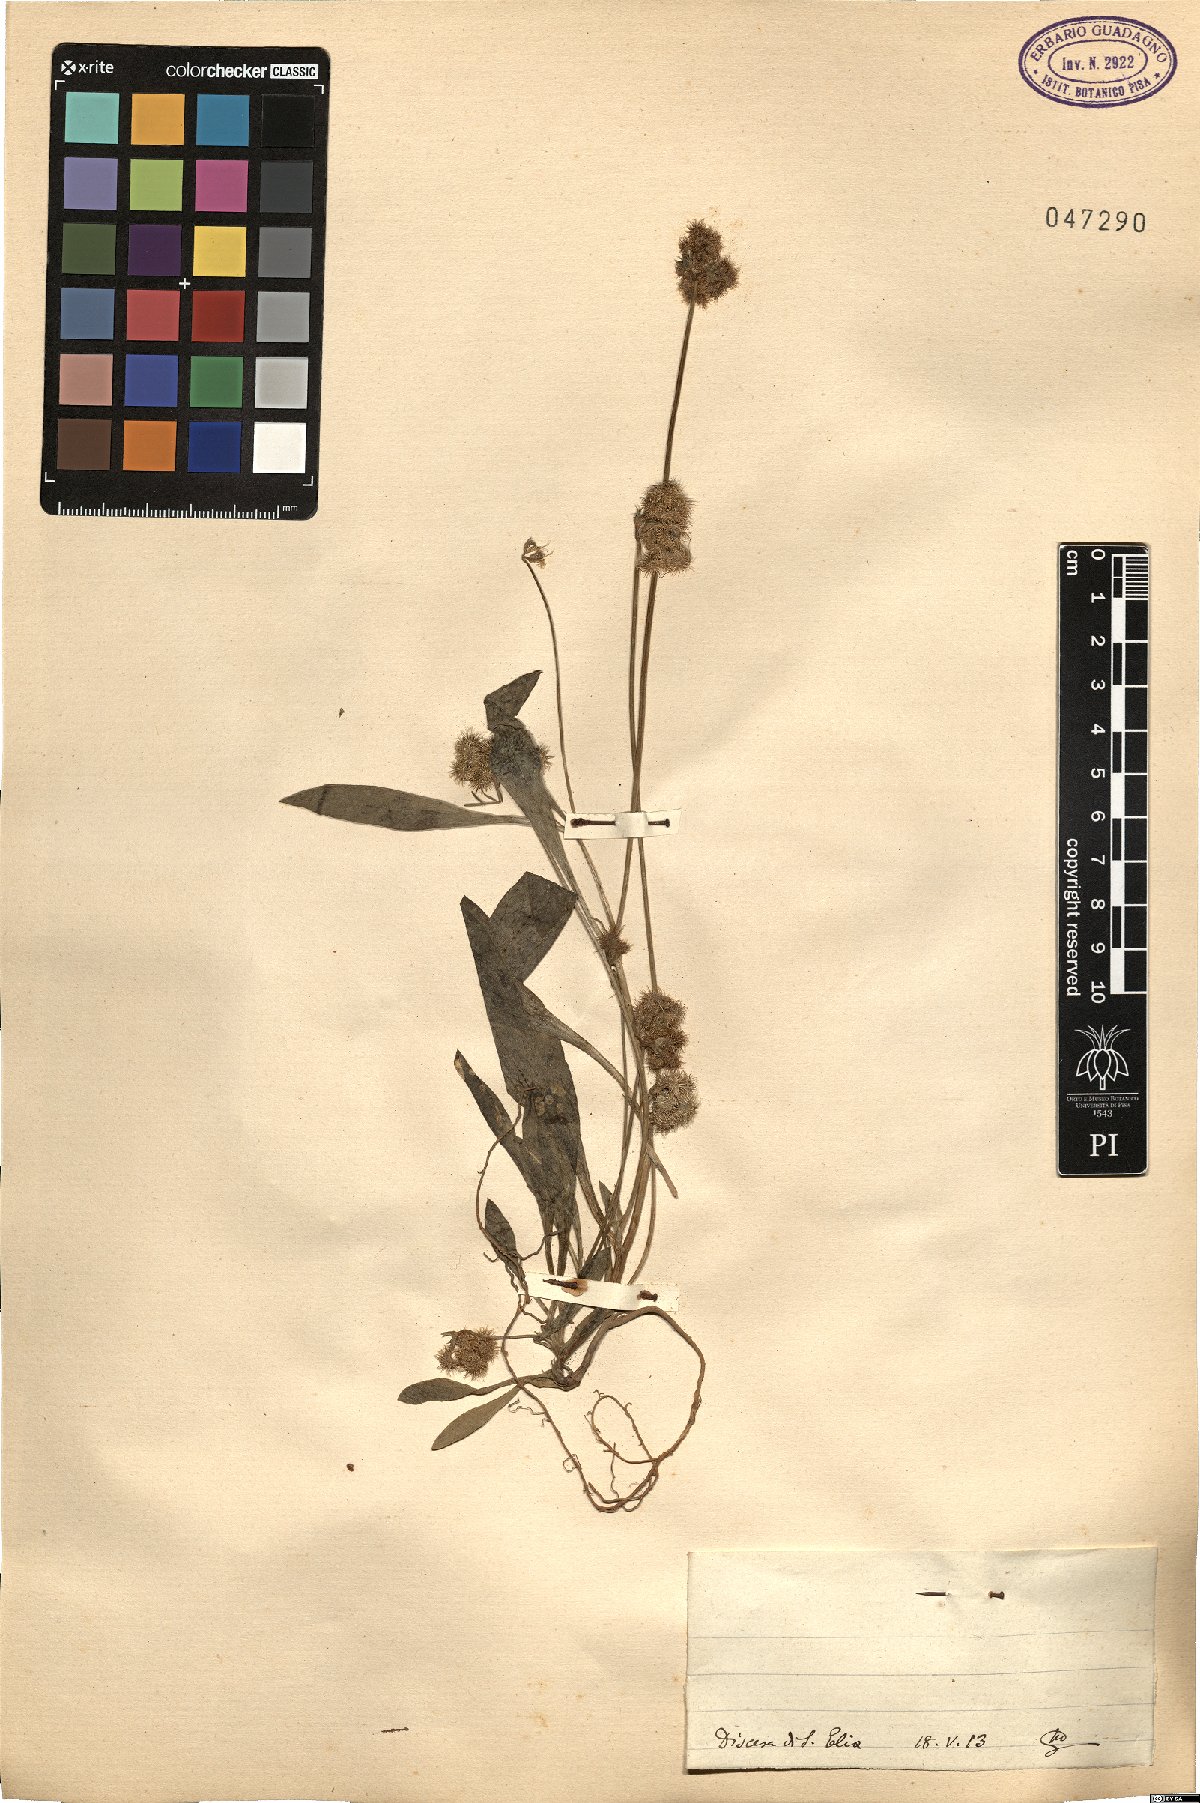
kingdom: Plantae
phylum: Tracheophyta
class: Magnoliopsida
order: Fabales
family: Fabaceae
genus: Scorpiurus
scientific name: Scorpiurus
